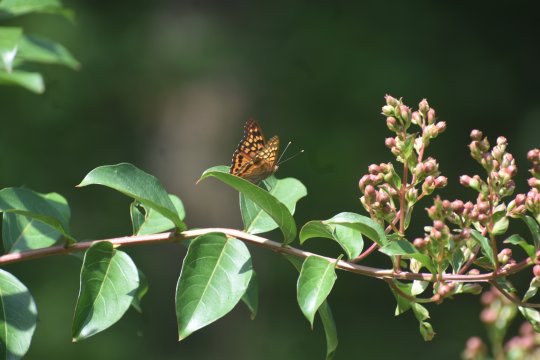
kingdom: Animalia
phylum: Arthropoda
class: Insecta
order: Lepidoptera
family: Nymphalidae
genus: Asterocampa
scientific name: Asterocampa clyton
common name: Tawny Emperor
